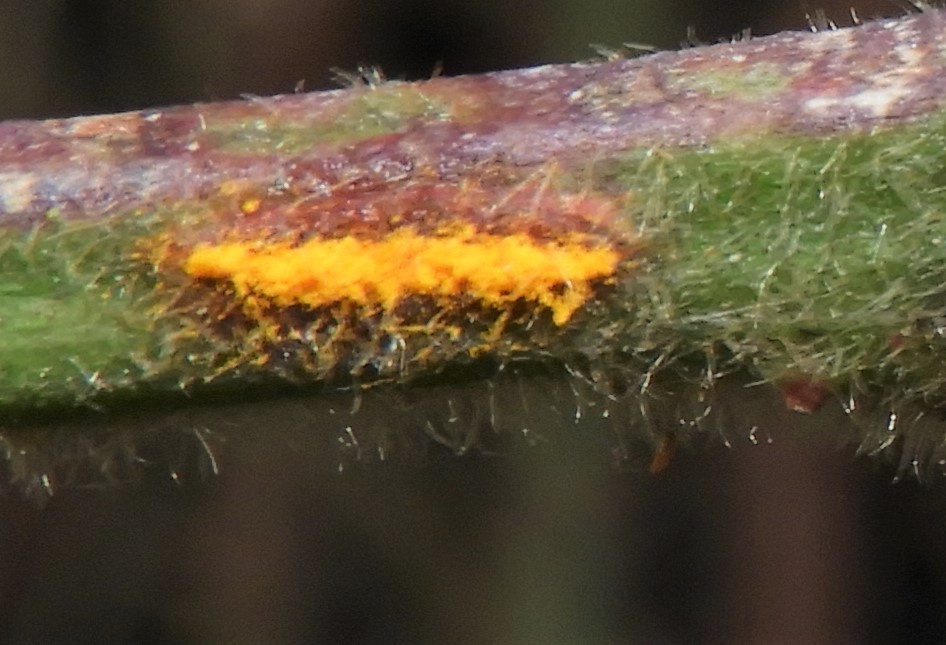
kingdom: Fungi
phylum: Basidiomycota
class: Pucciniomycetes
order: Pucciniales
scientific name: Pucciniales
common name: rustsvampeordenen
